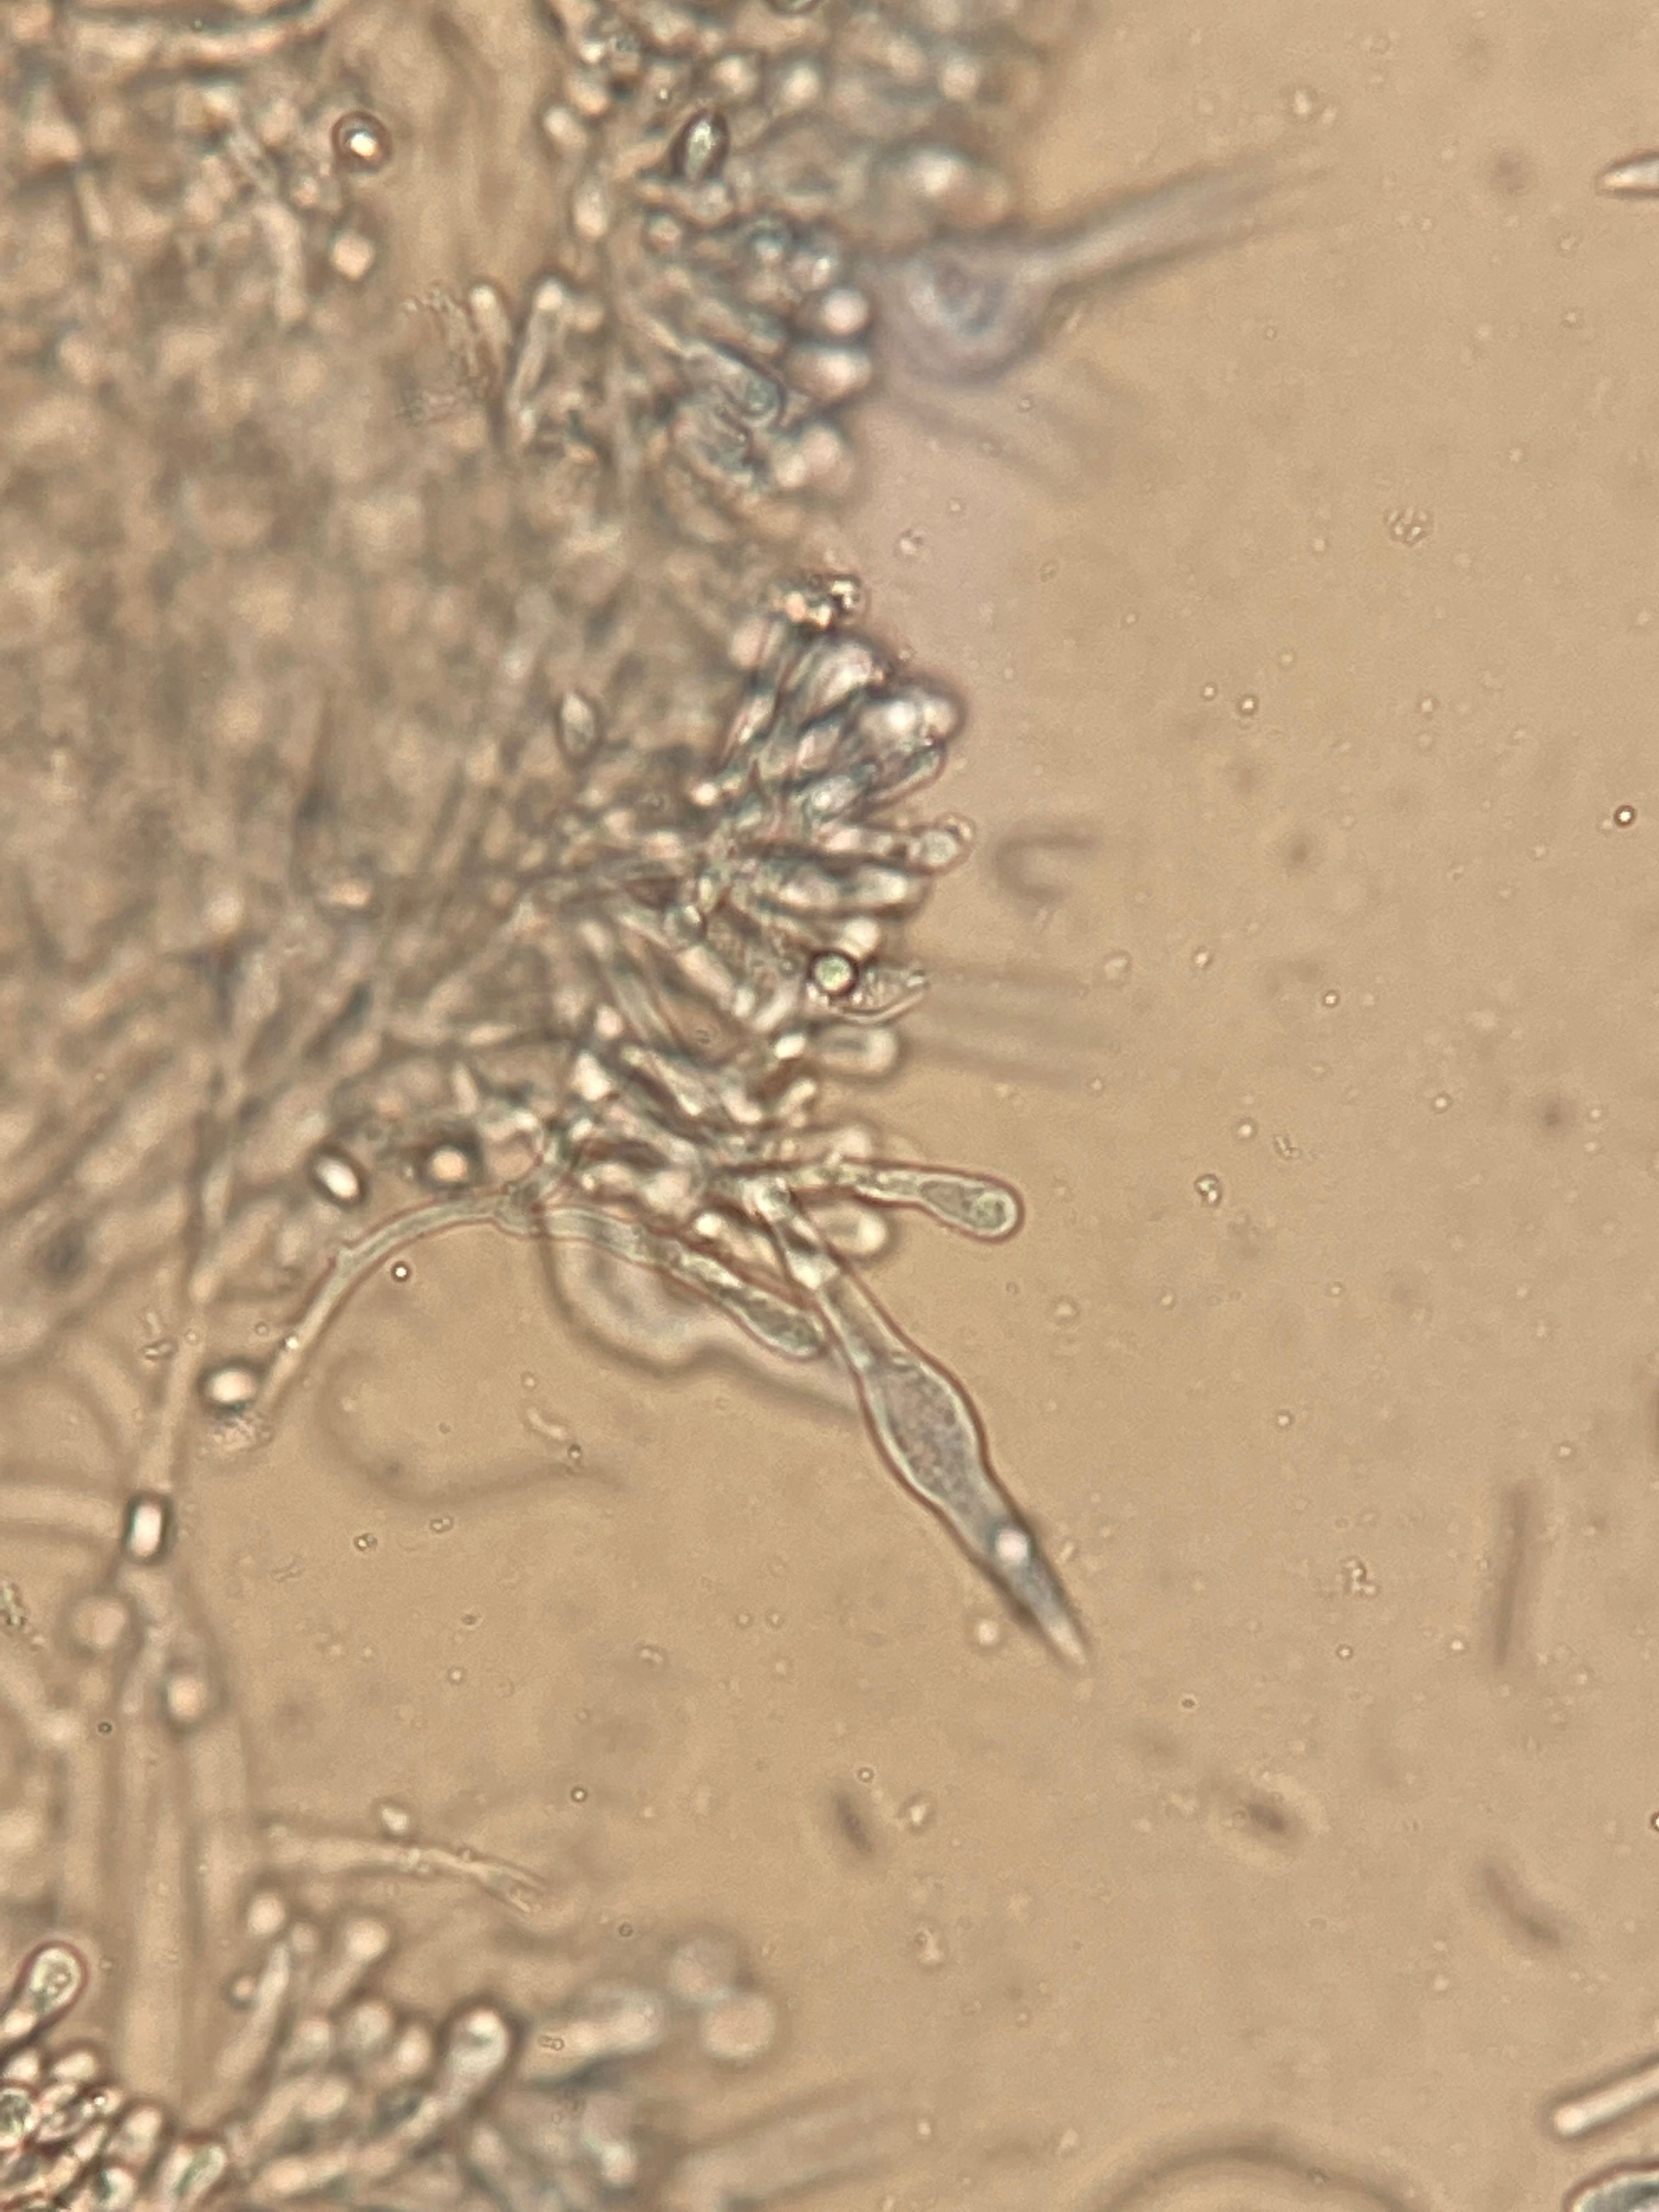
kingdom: Fungi
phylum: Basidiomycota
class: Agaricomycetes
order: Agaricales
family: Tricholomataceae
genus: Melanoleuca
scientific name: Melanoleuca
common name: munkehat
